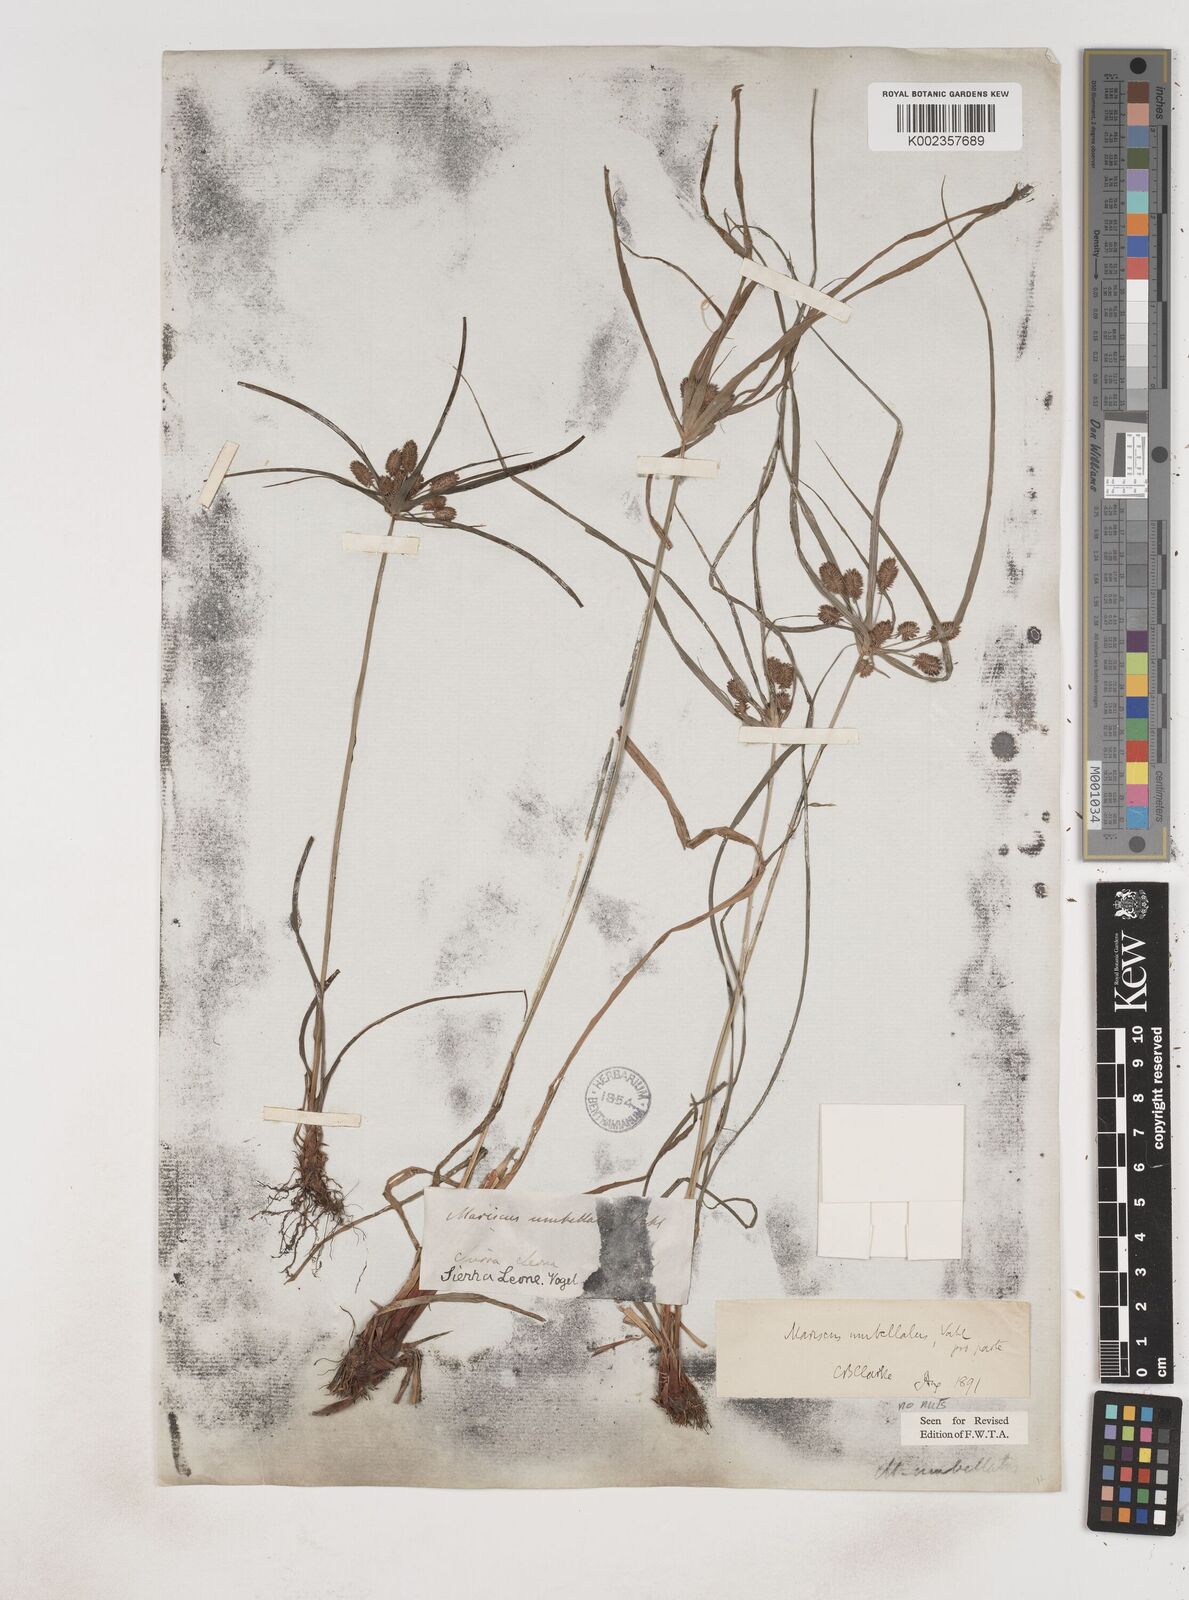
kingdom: Plantae
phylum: Tracheophyta
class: Liliopsida
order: Poales
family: Cyperaceae
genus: Cyperus
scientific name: Cyperus sublimis
